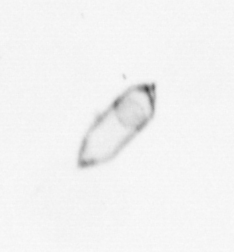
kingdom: Chromista
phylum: Ochrophyta
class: Bacillariophyceae
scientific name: Bacillariophyceae
